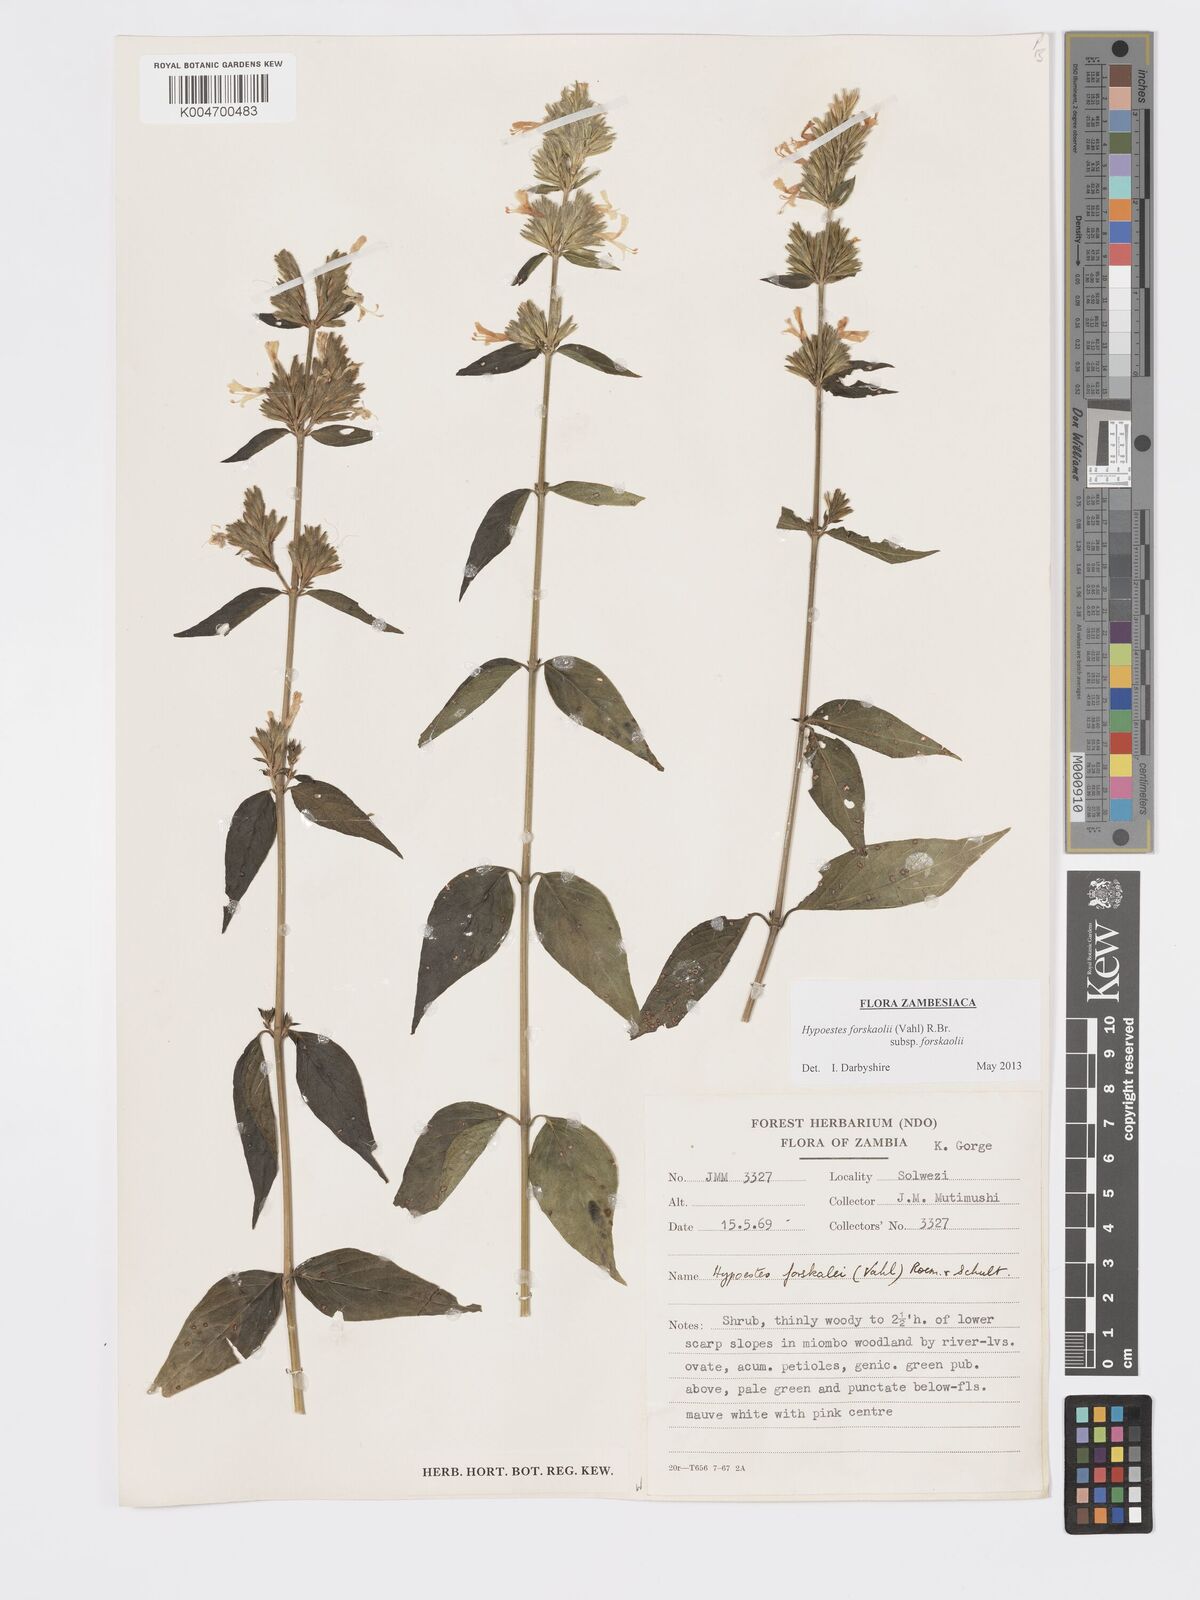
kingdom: Plantae
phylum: Tracheophyta
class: Magnoliopsida
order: Lamiales
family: Acanthaceae
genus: Hypoestes
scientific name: Hypoestes forskaolii
